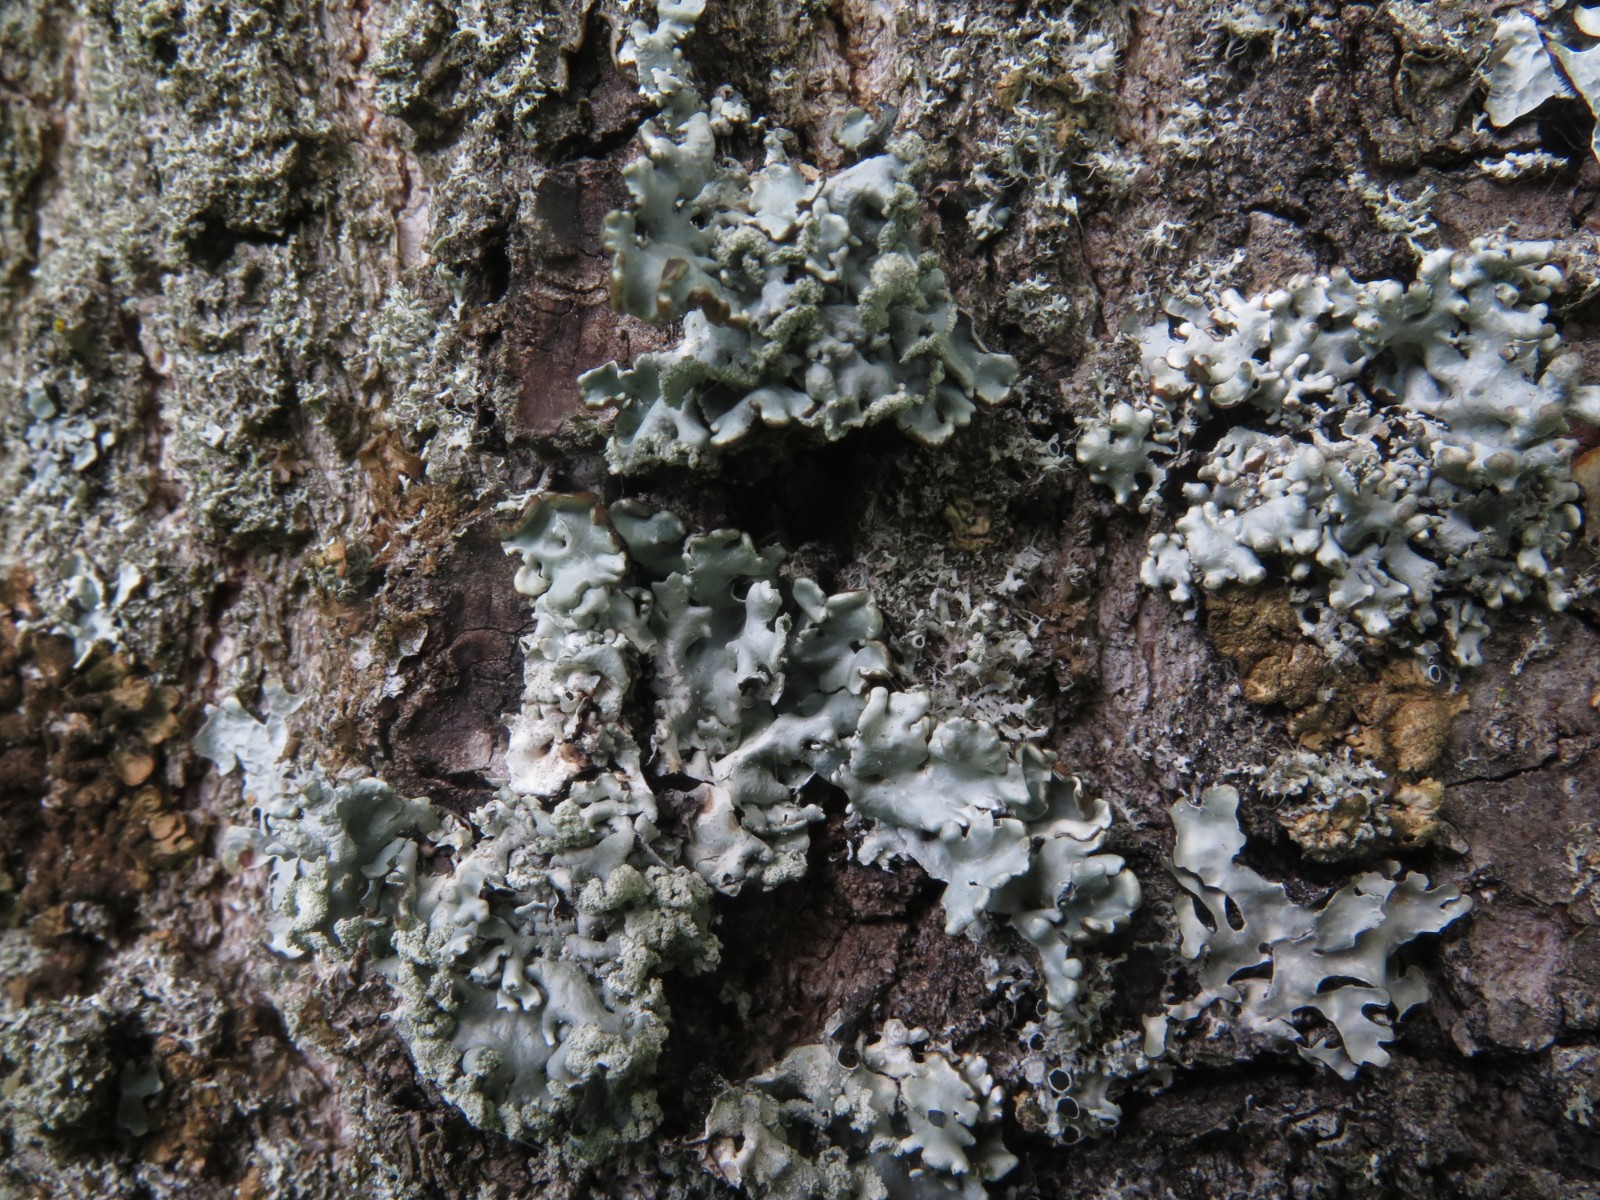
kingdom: Fungi
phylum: Ascomycota
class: Lecanoromycetes
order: Lecanorales
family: Parmeliaceae
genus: Hypogymnia
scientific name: Hypogymnia physodes
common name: almindelig kvistlav
